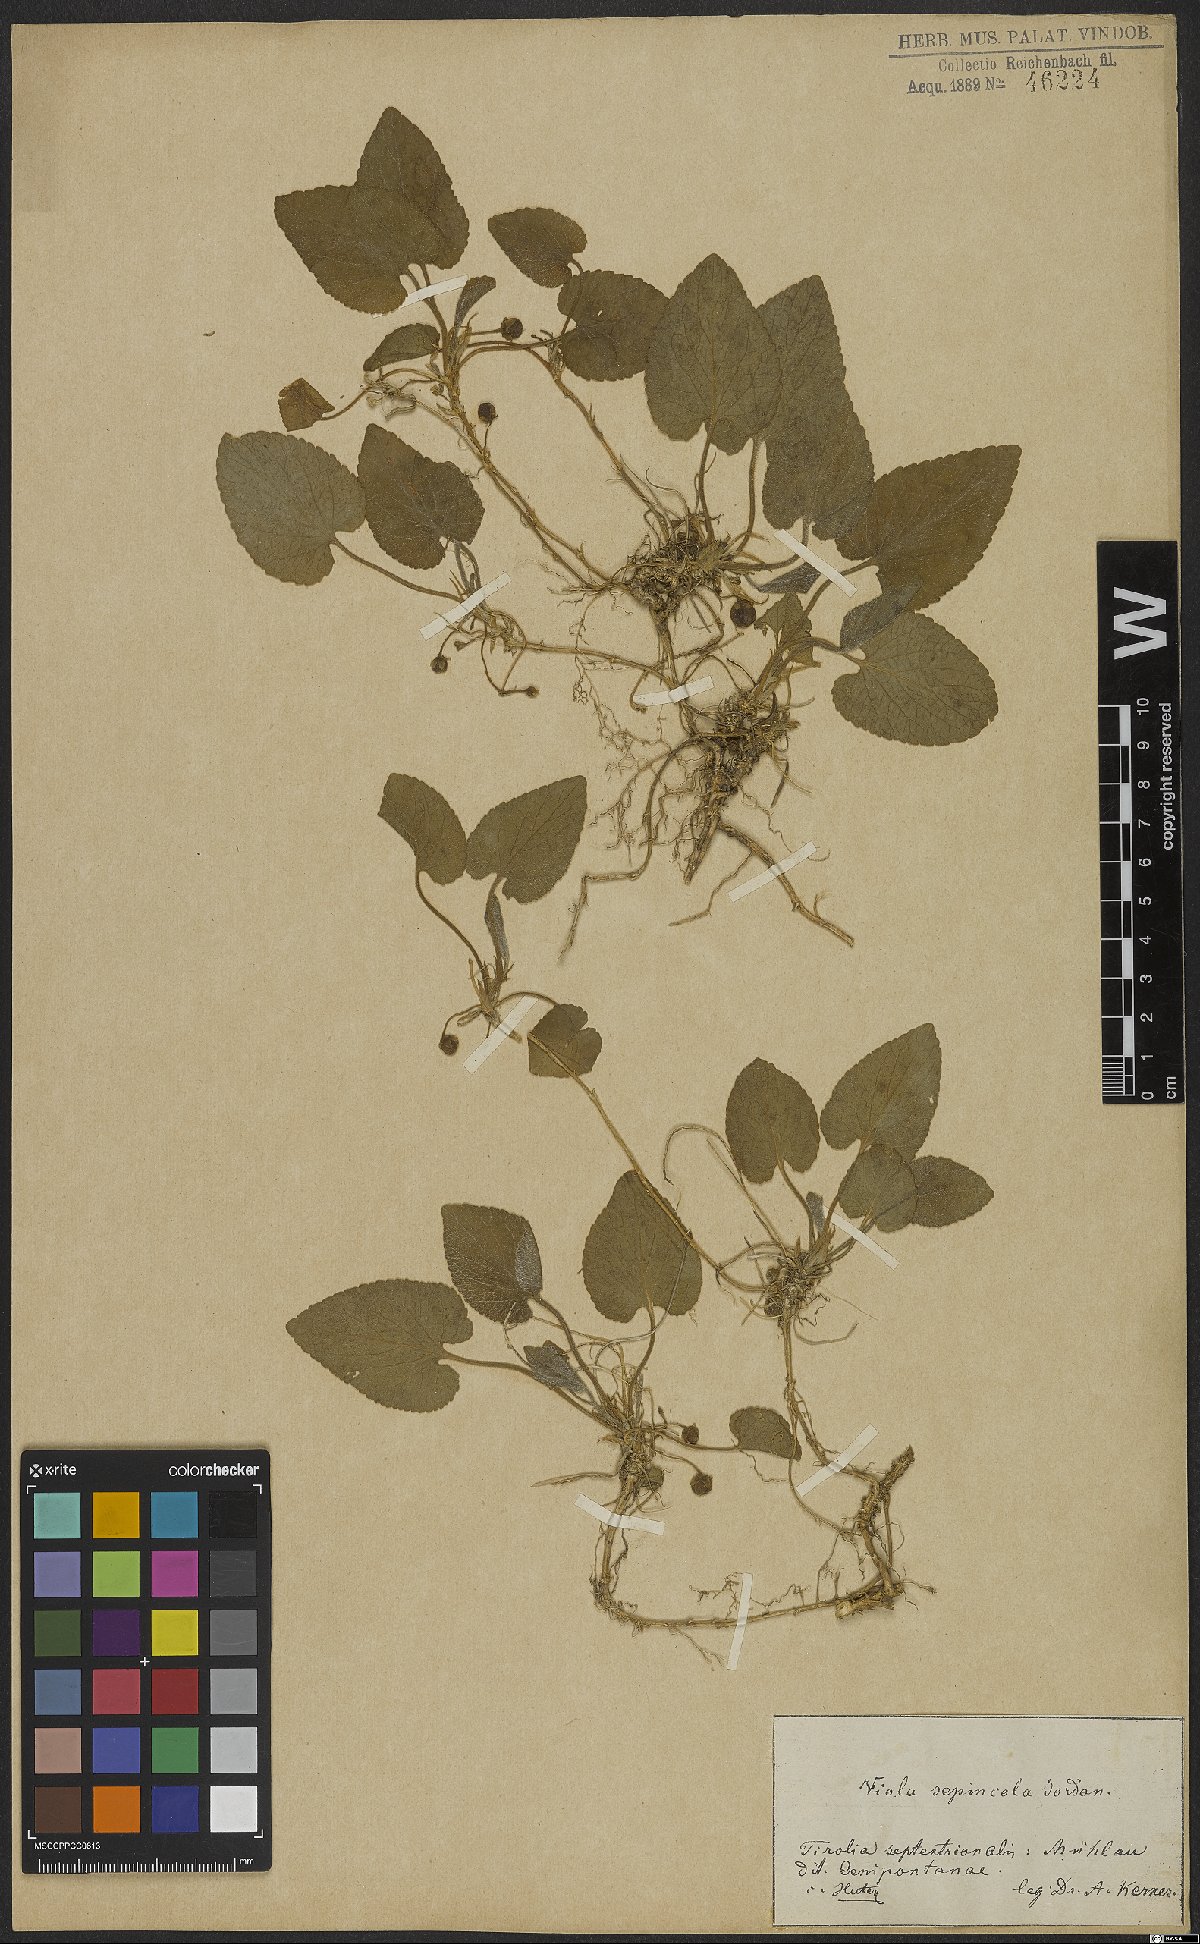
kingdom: Plantae
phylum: Tracheophyta
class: Magnoliopsida
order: Malpighiales
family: Violaceae
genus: Viola
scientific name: Viola suavis
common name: Russian violet
